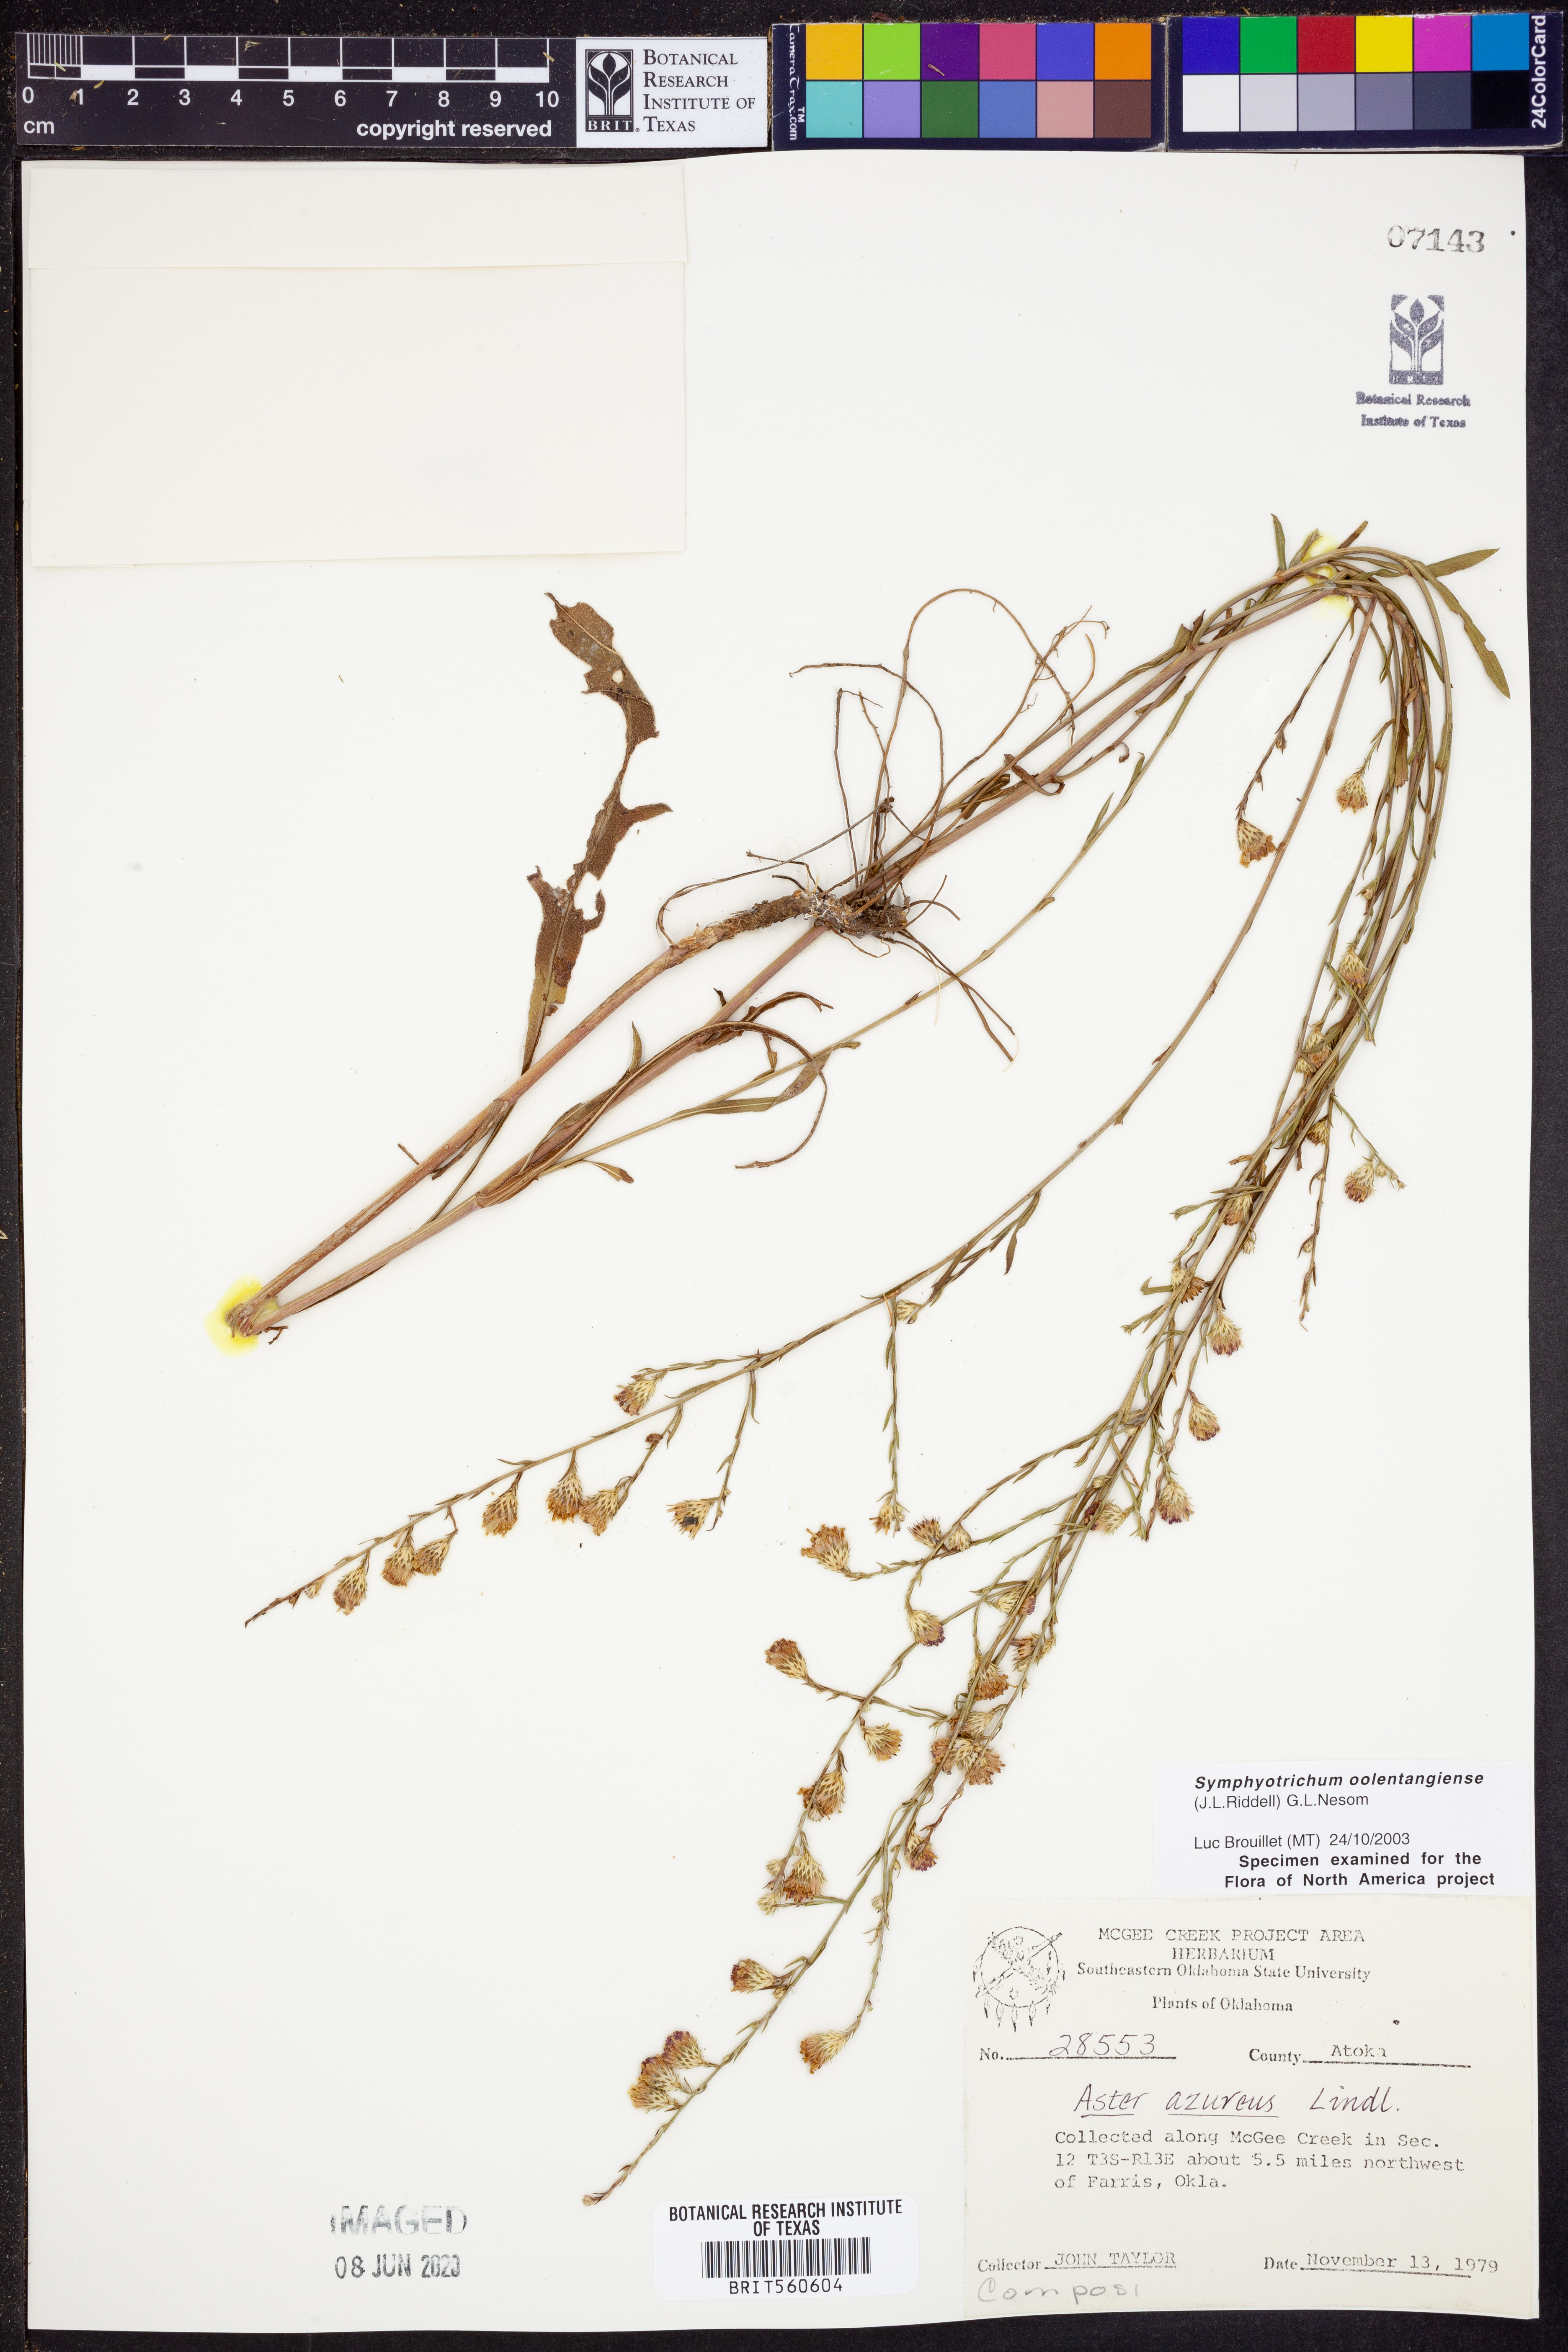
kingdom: Plantae
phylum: Tracheophyta
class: Magnoliopsida
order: Asterales
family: Asteraceae
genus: Symphyotrichum
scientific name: Symphyotrichum oolentangiense
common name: Azure aster
